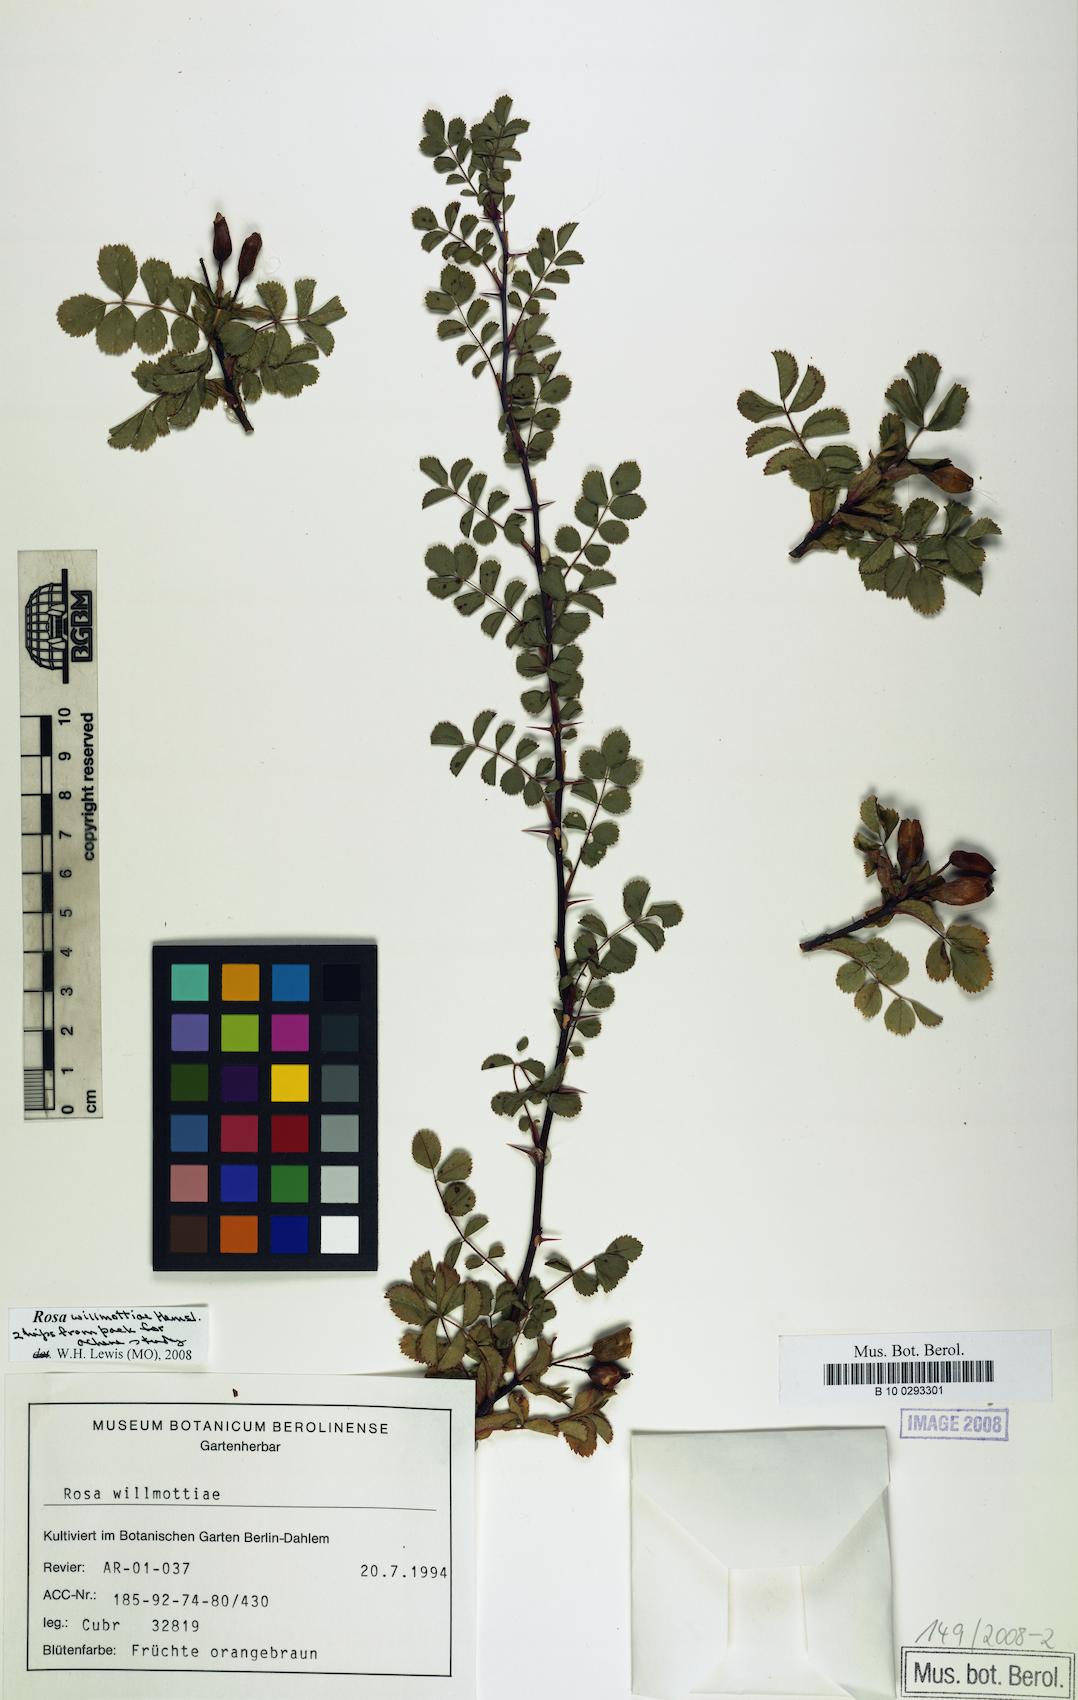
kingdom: Plantae
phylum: Tracheophyta
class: Magnoliopsida
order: Rosales
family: Rosaceae
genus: Rosa
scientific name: Rosa willmottiae
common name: Willmott's rose
